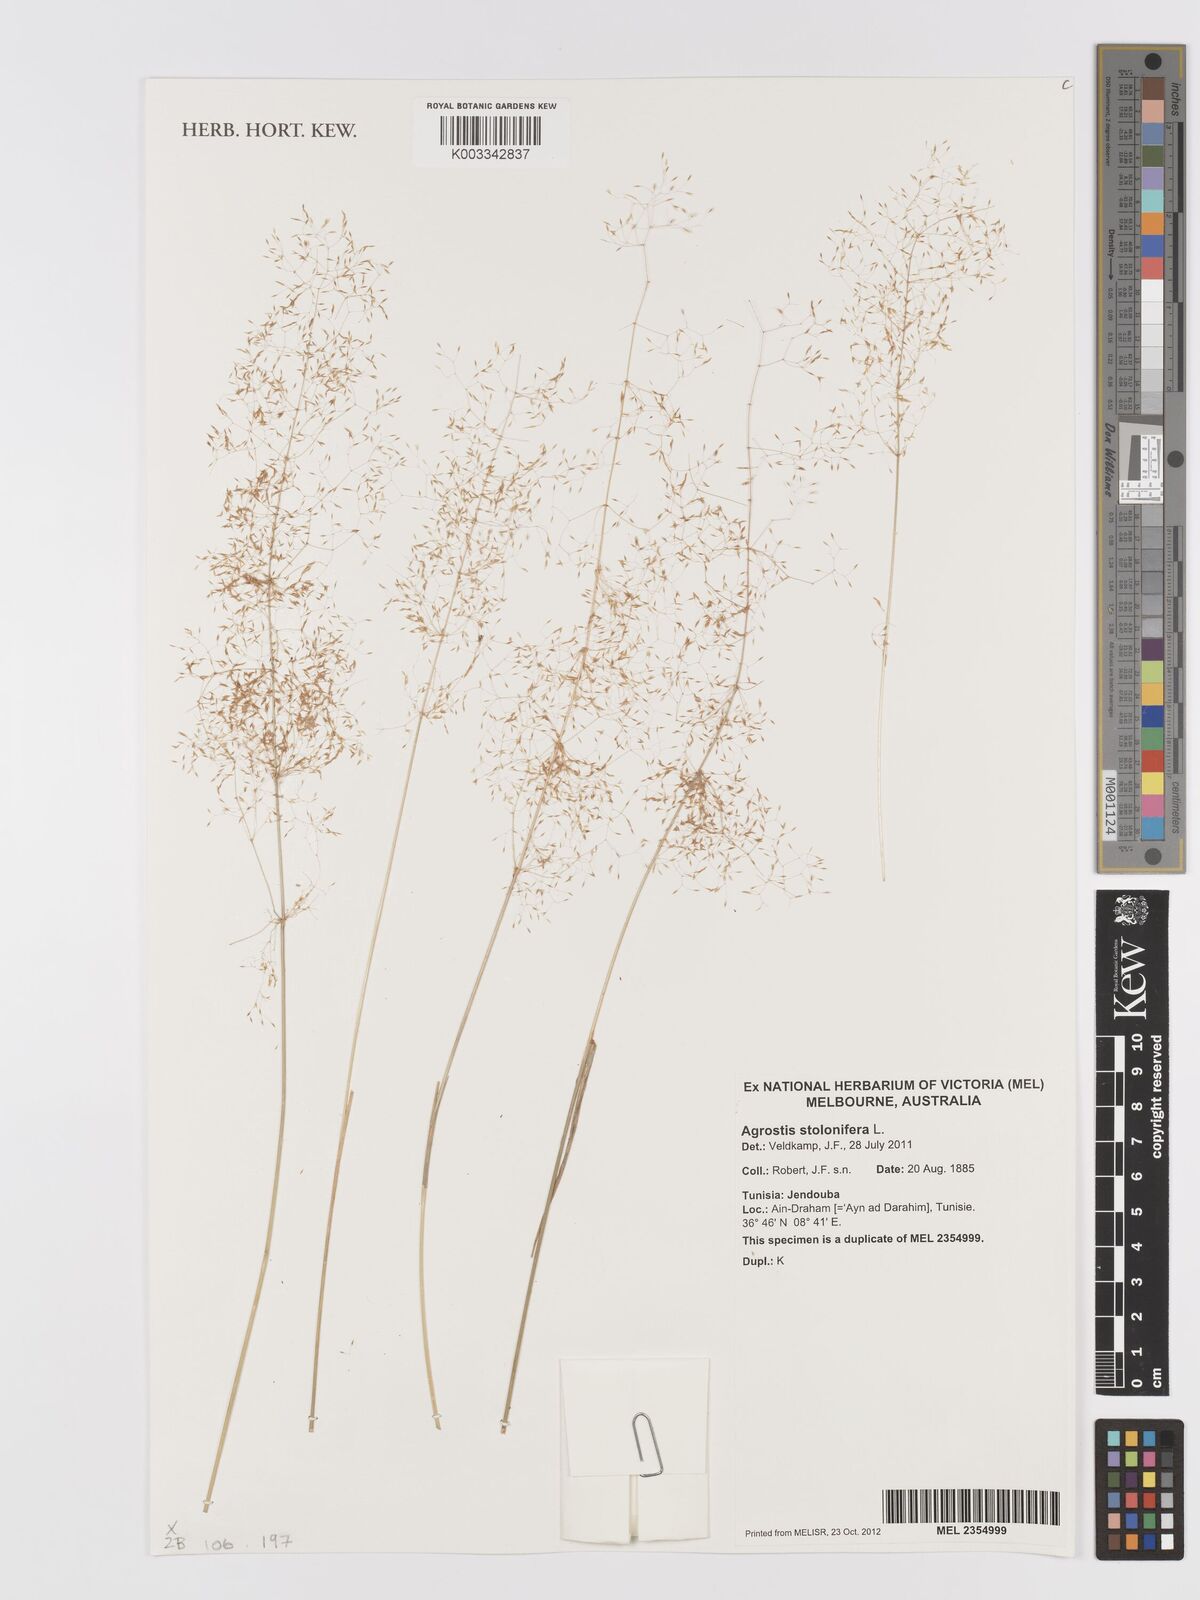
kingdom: Plantae
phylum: Tracheophyta
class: Liliopsida
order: Poales
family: Poaceae
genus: Agrostis
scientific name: Agrostis stolonifera
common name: Creeping bentgrass
